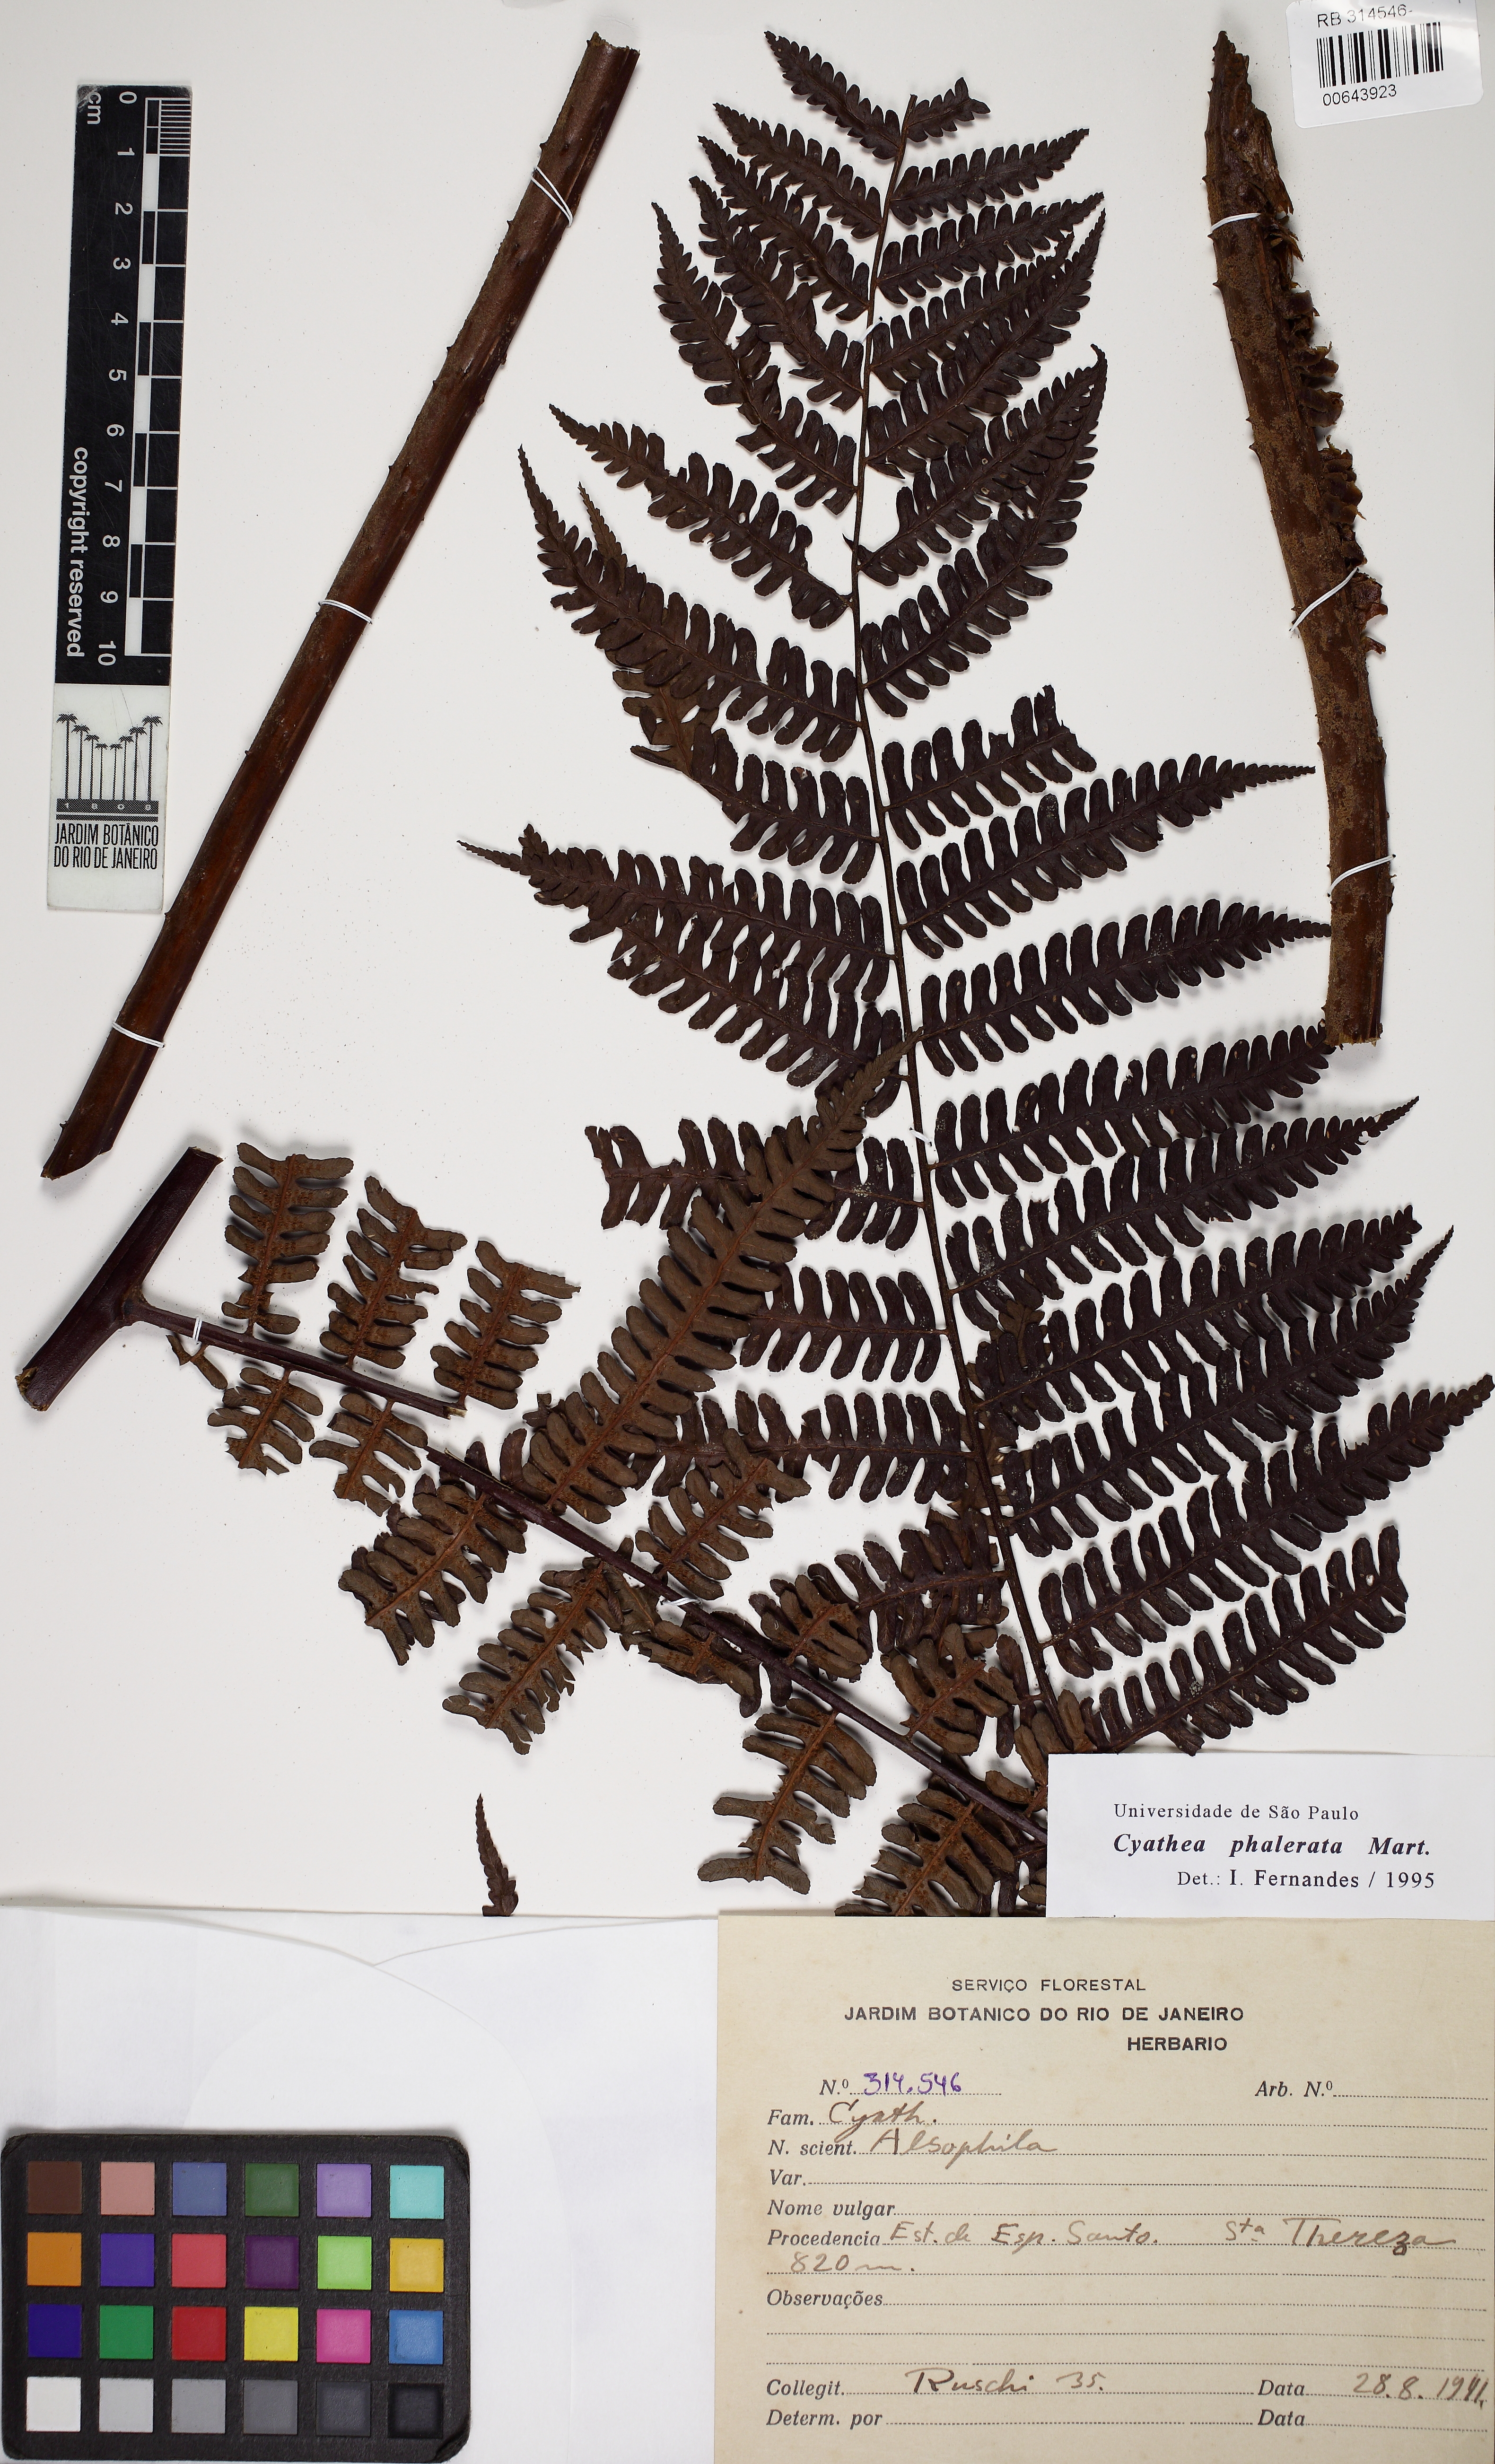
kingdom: Plantae
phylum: Tracheophyta
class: Polypodiopsida
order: Cyatheales
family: Cyatheaceae
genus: Cyathea
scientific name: Cyathea phalerata
